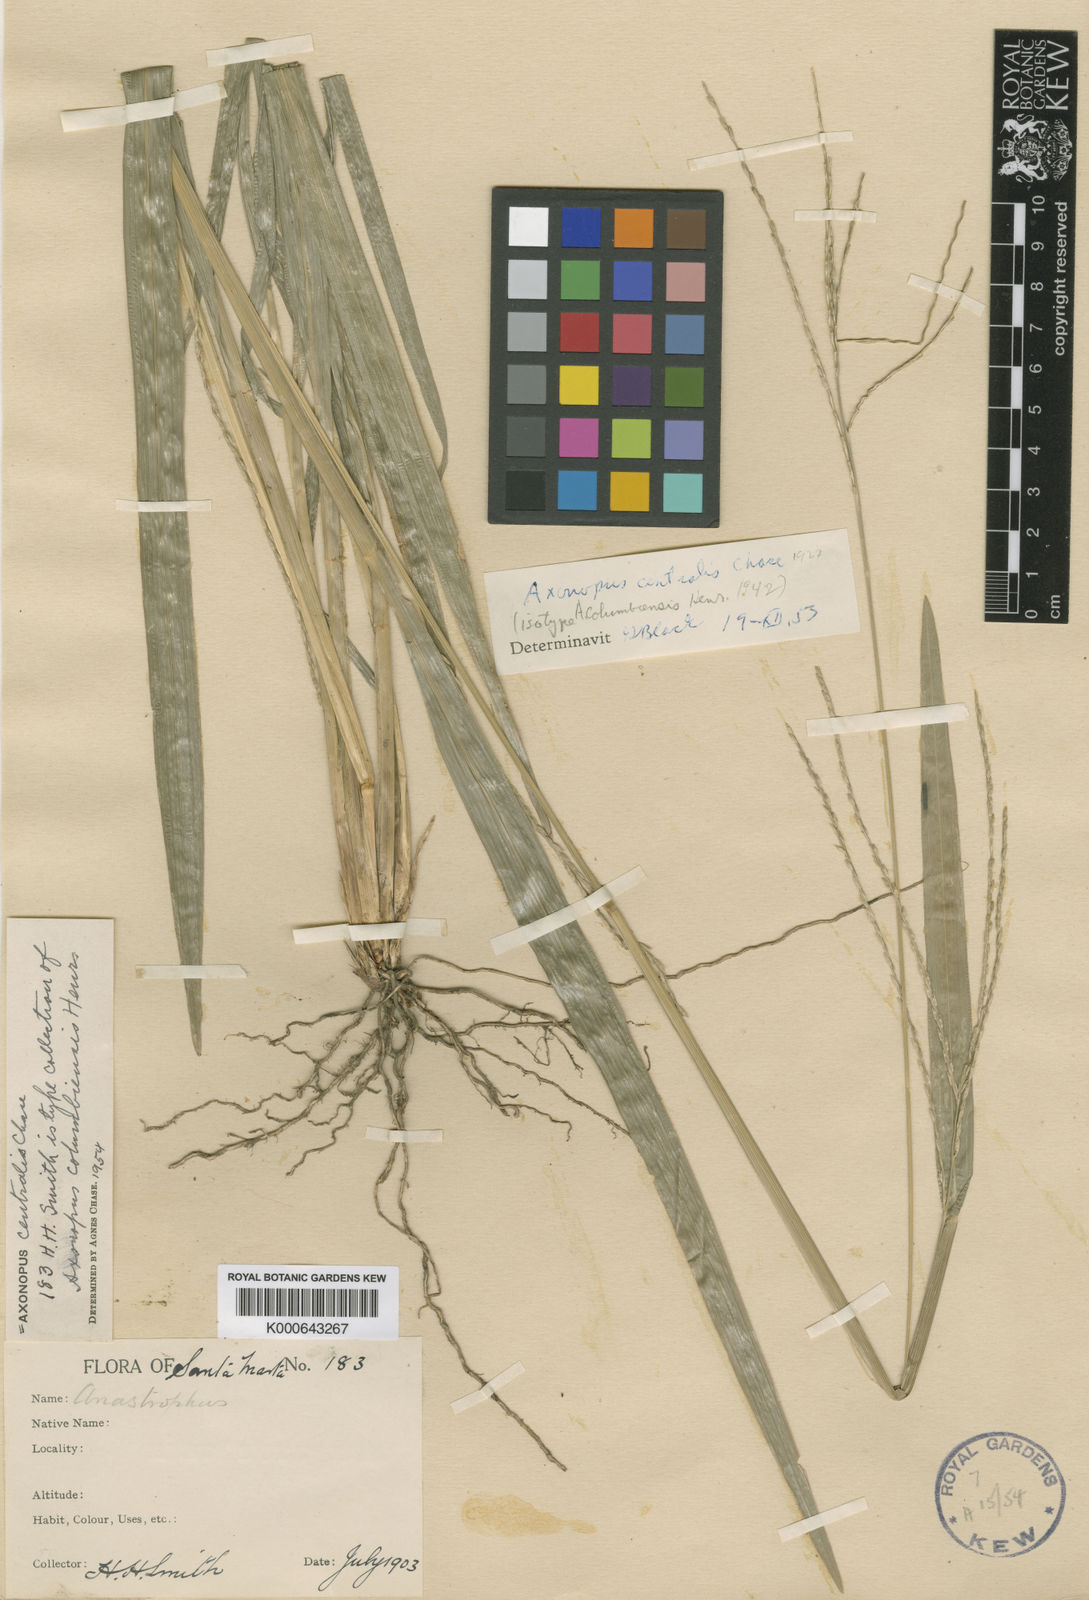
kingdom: Plantae
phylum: Tracheophyta
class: Liliopsida
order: Poales
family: Poaceae
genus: Axonopus
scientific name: Axonopus centralis
